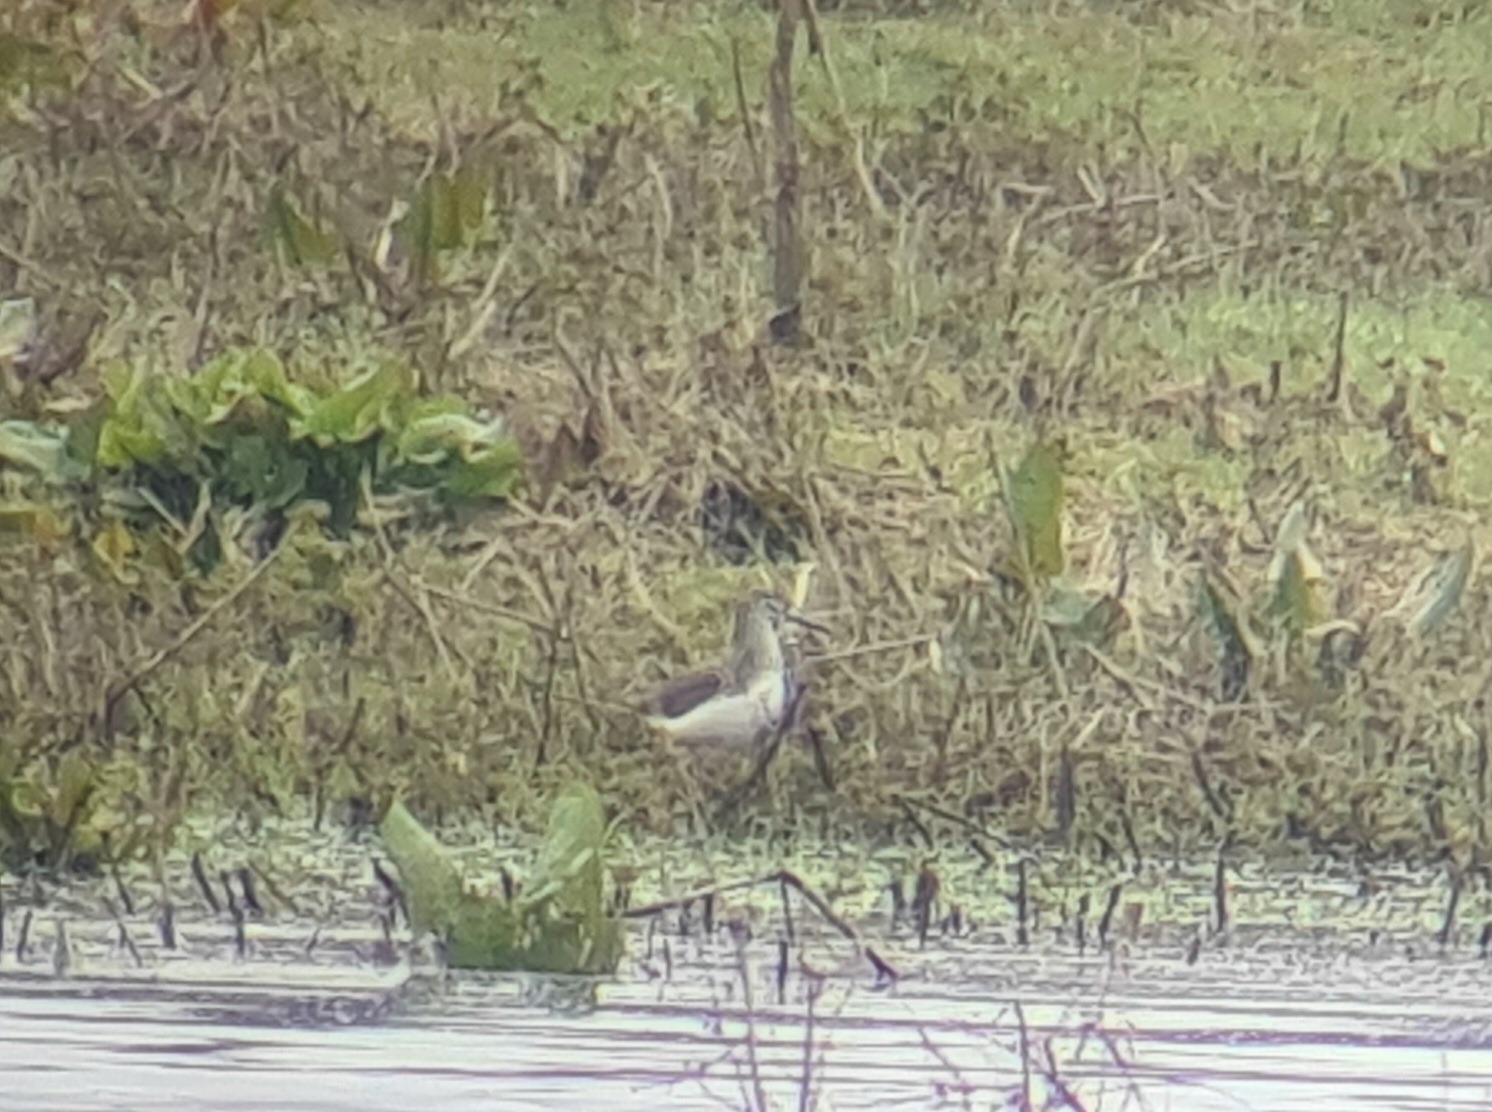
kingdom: Animalia
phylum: Chordata
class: Aves
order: Charadriiformes
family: Scolopacidae
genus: Tringa
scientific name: Tringa ochropus
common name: Svaleklire
